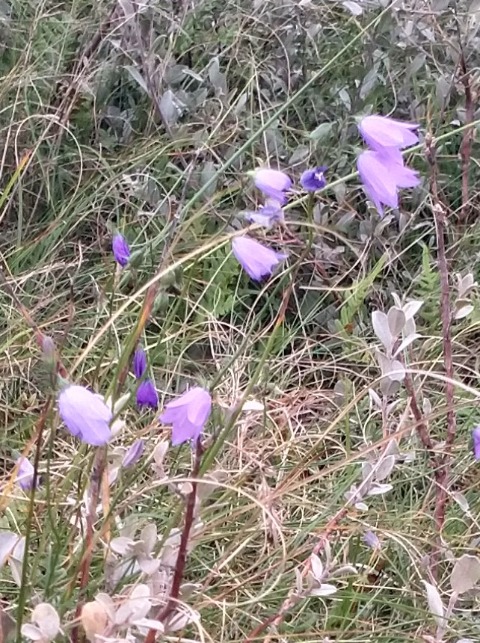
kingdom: Plantae
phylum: Tracheophyta
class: Magnoliopsida
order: Asterales
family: Campanulaceae
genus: Campanula
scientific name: Campanula rotundifolia
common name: Liden klokke
